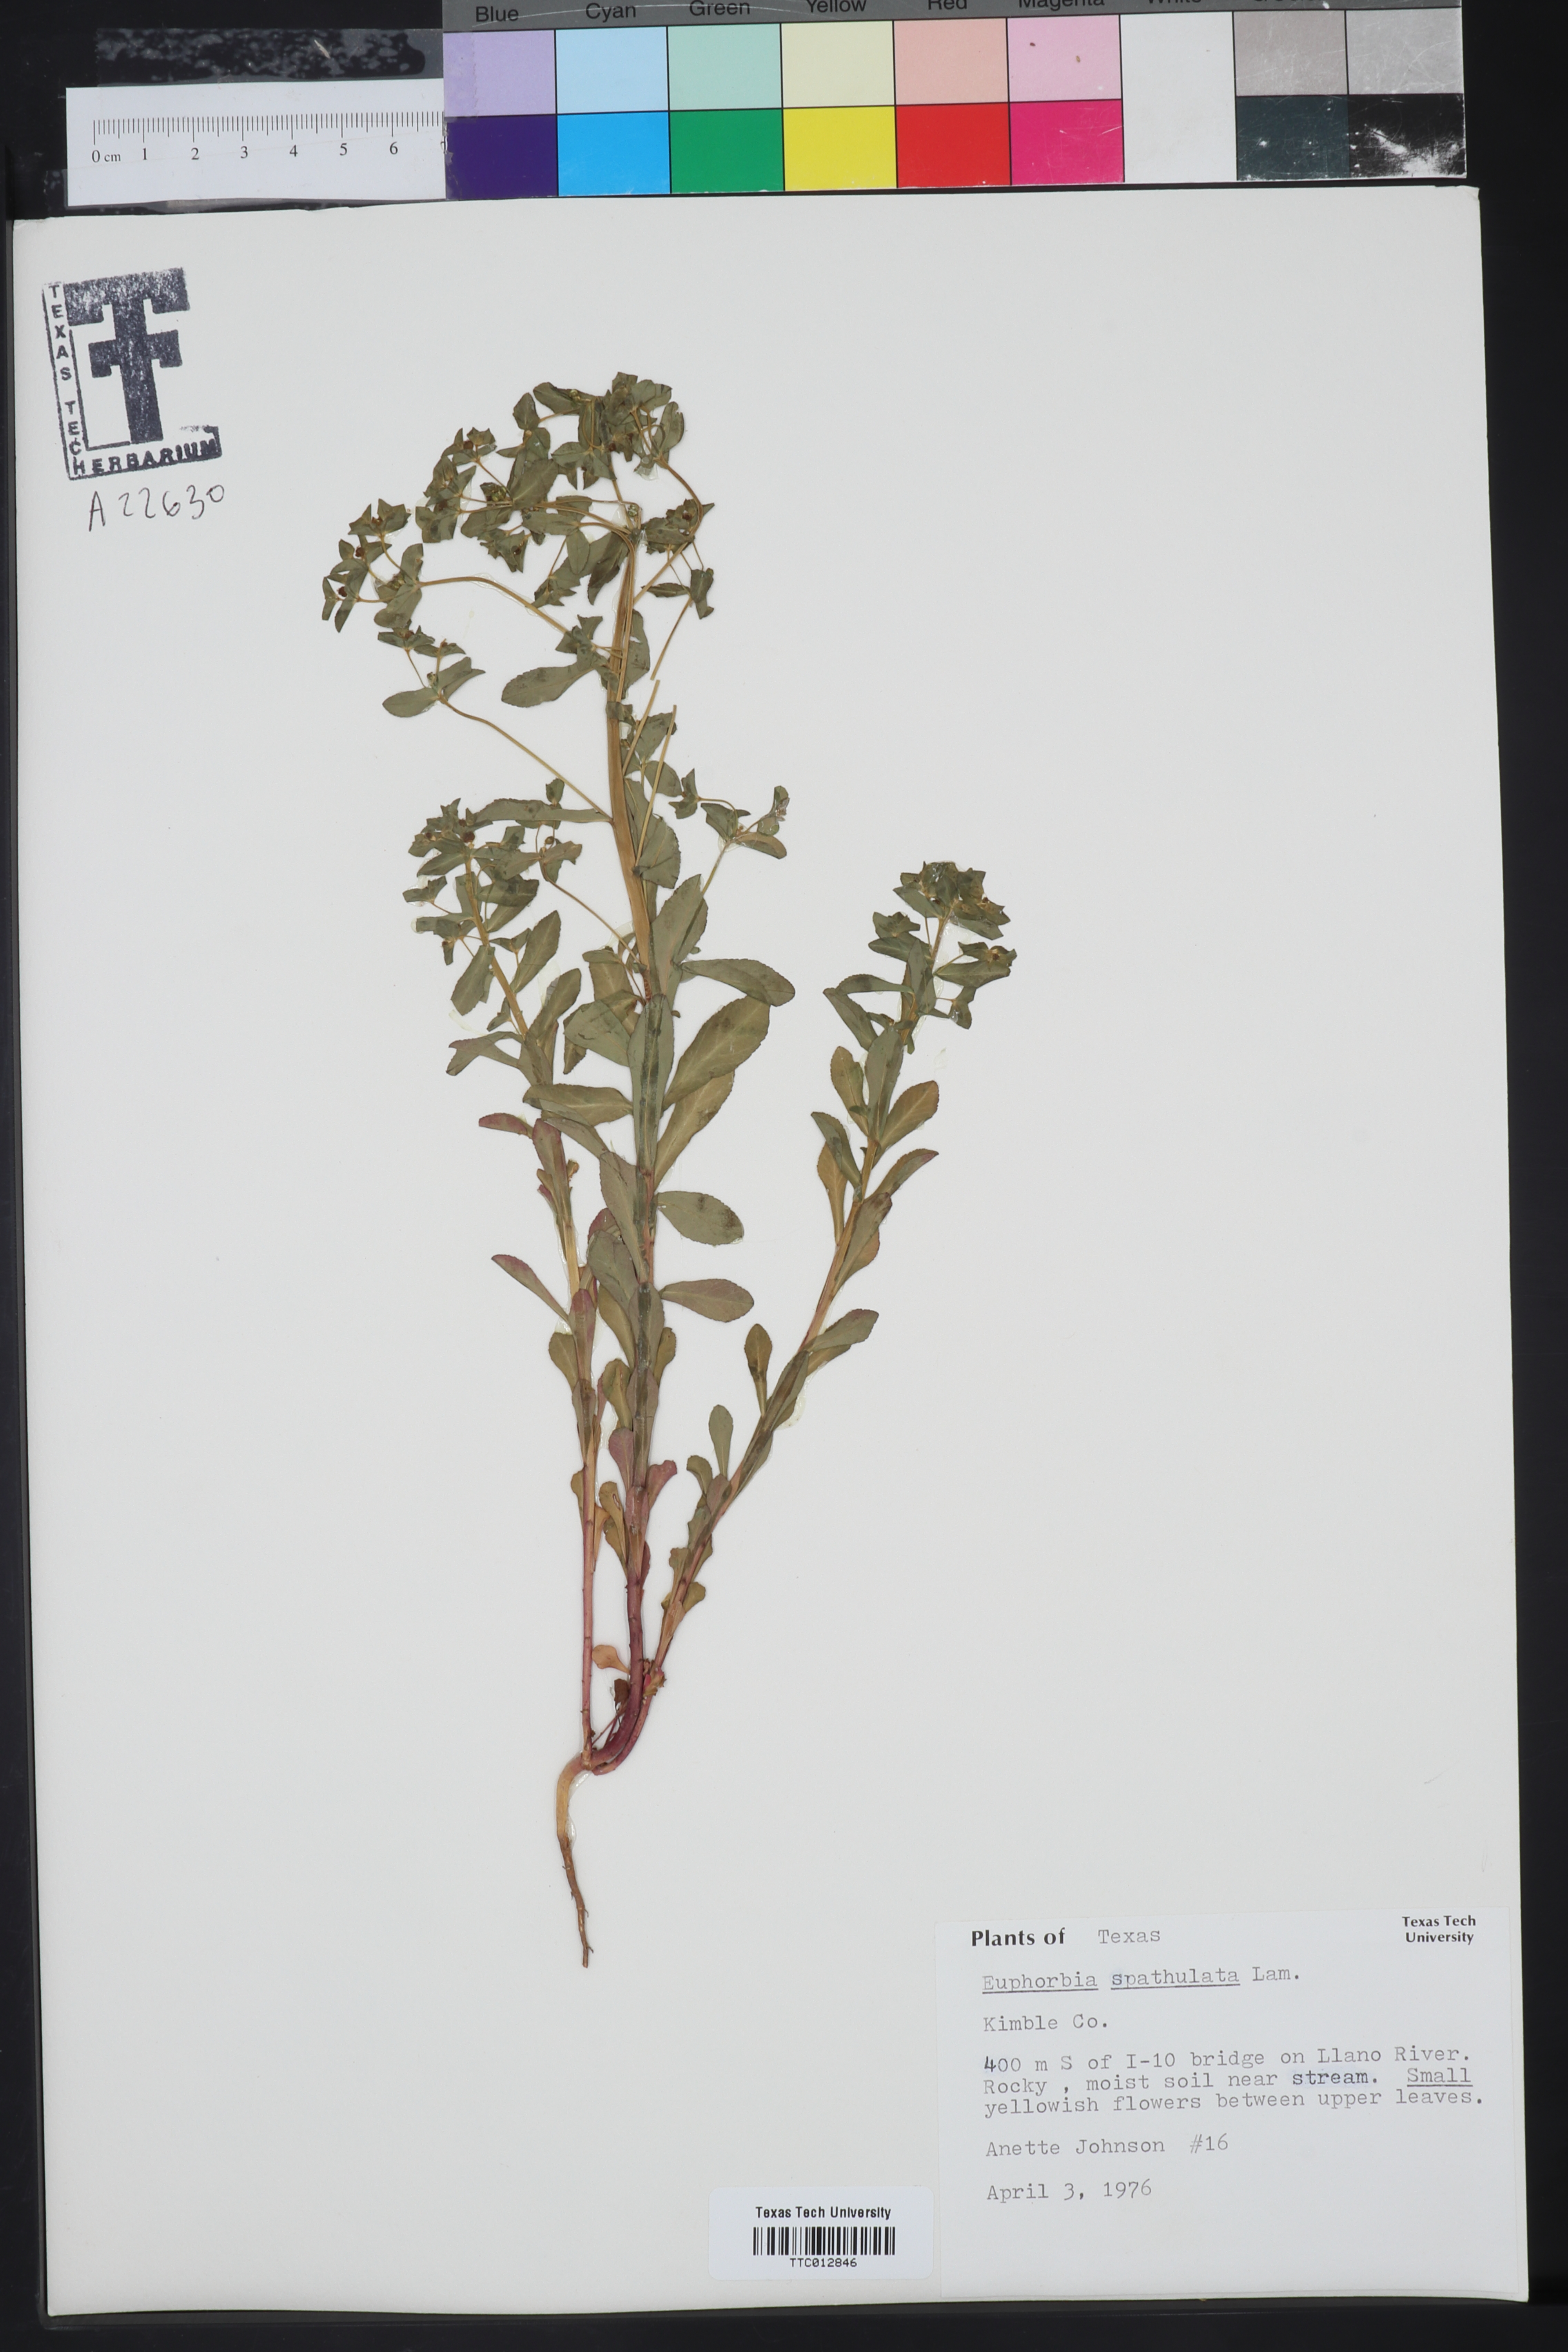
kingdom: Plantae
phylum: Tracheophyta
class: Magnoliopsida
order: Malpighiales
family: Euphorbiaceae
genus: Euphorbia
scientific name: Euphorbia spathulata
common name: Blunt spurge
